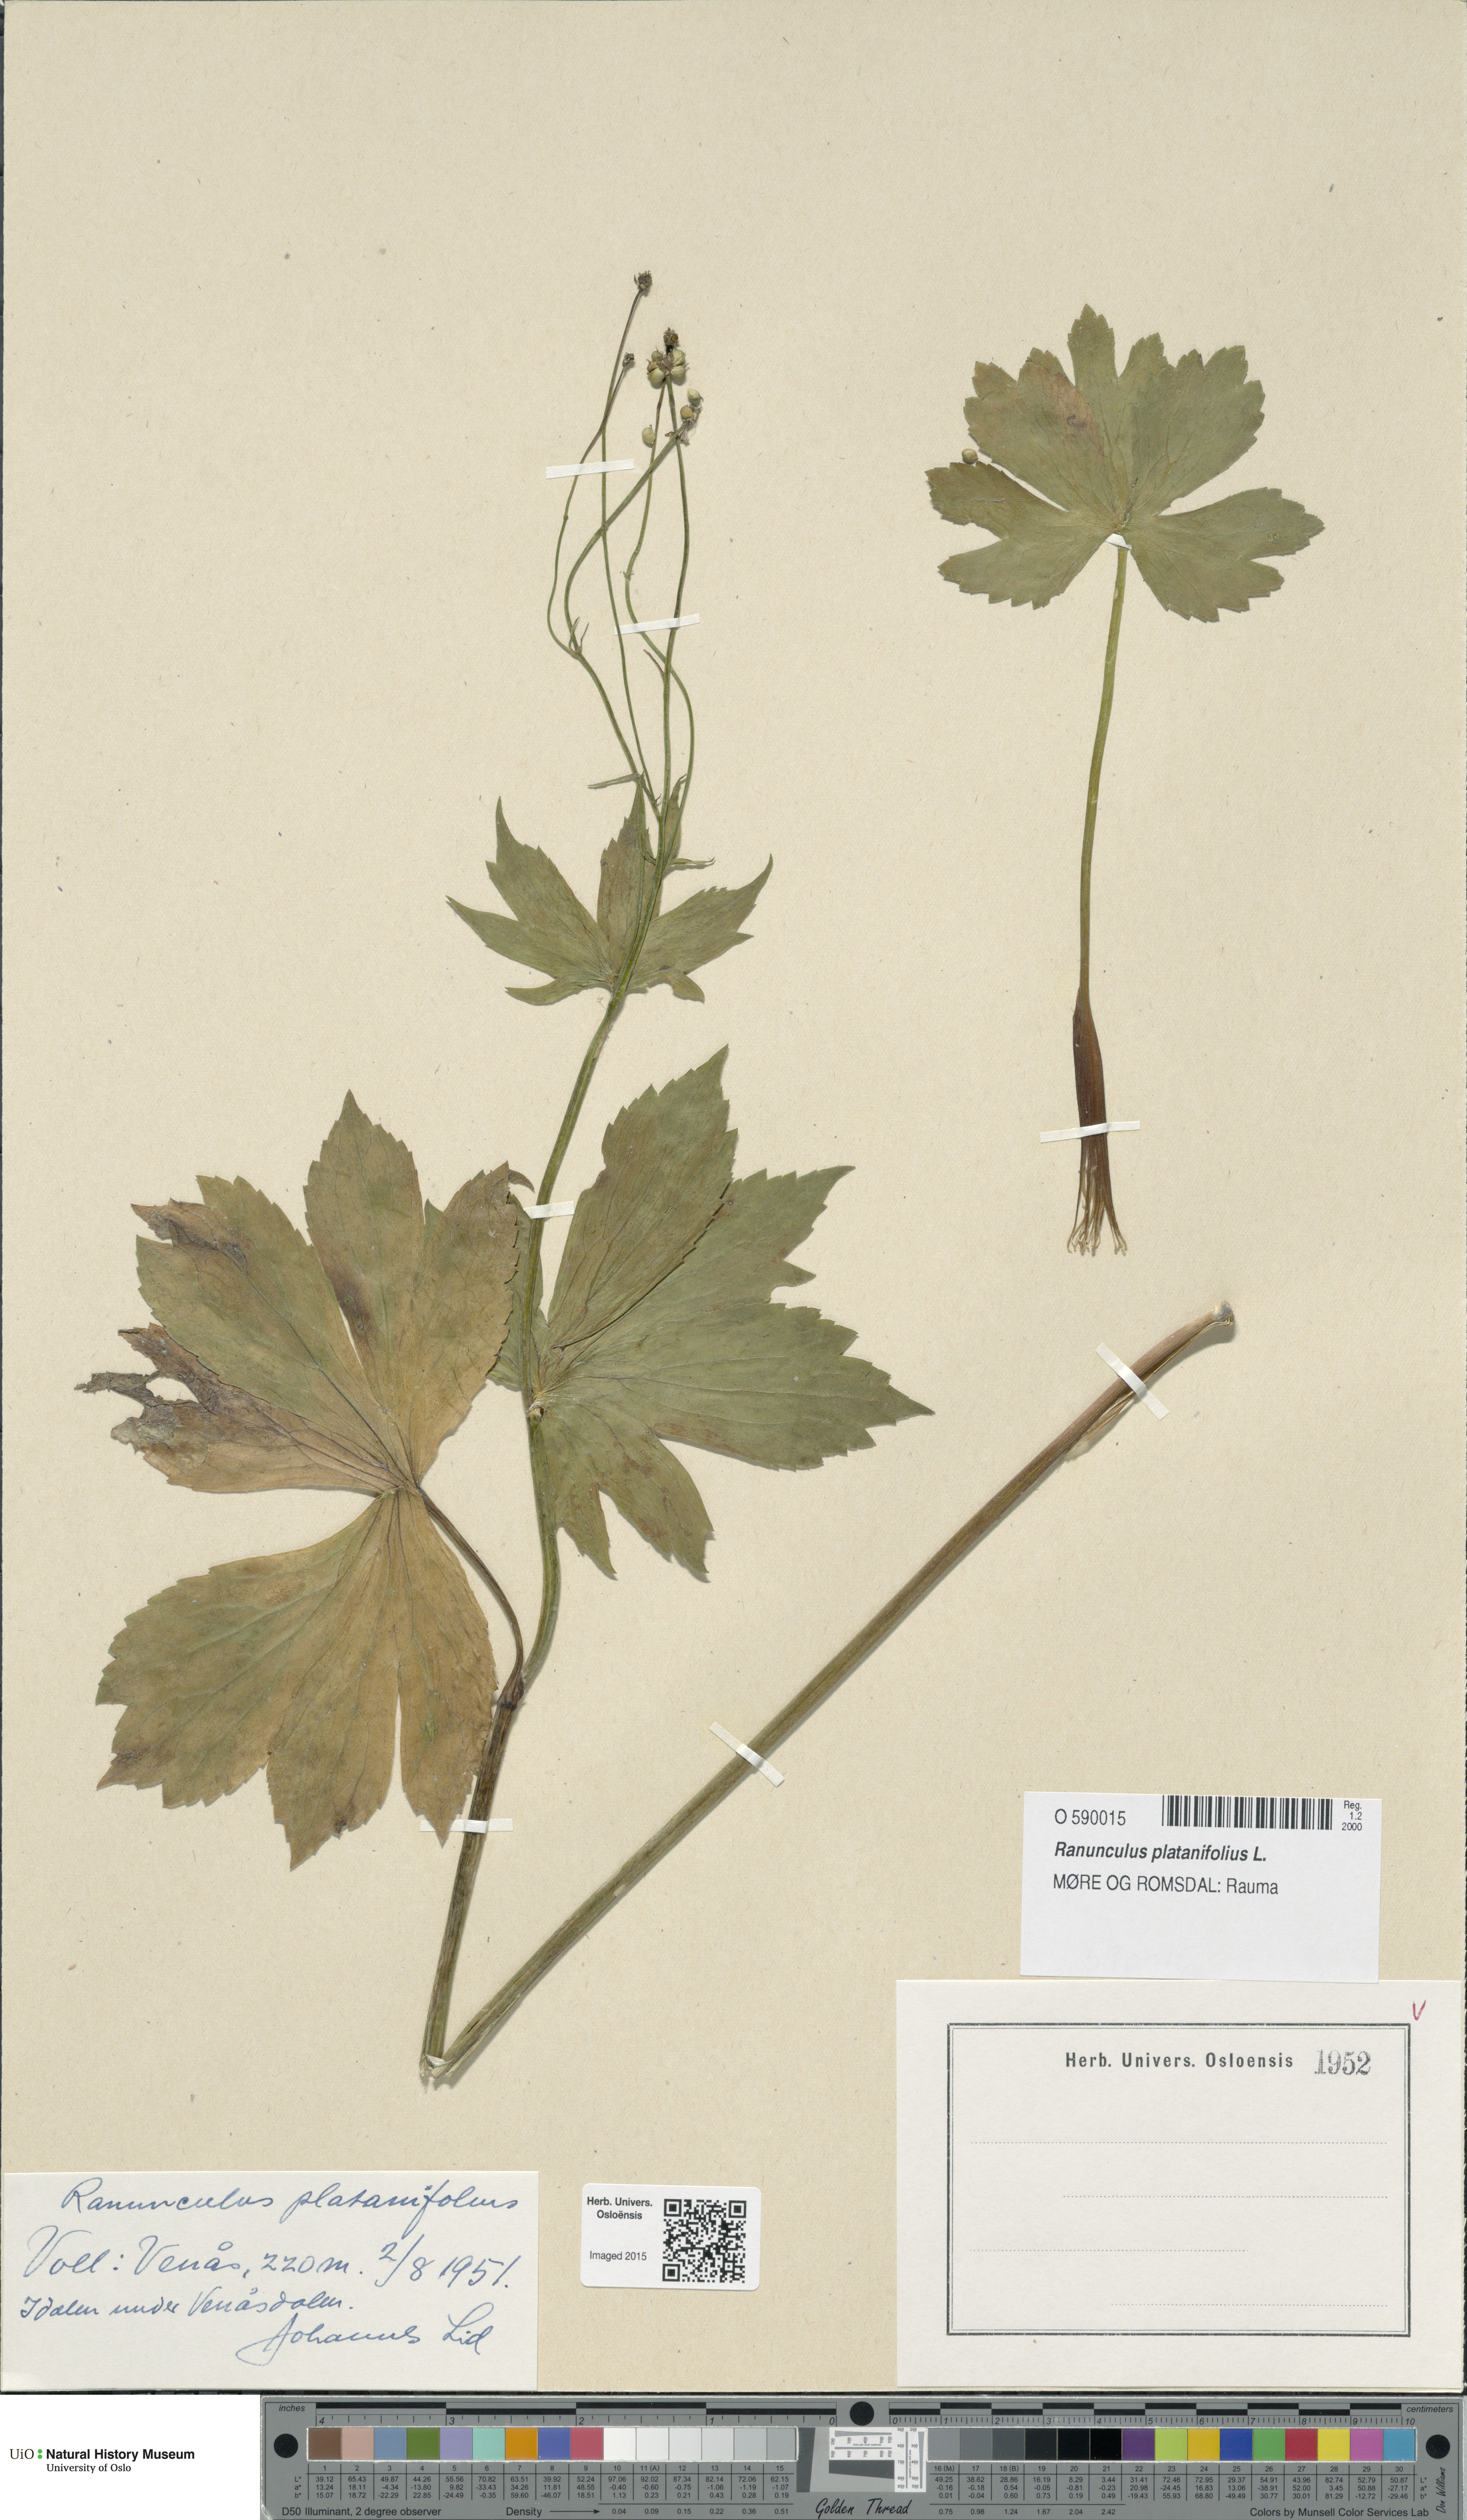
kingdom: Plantae
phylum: Tracheophyta
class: Magnoliopsida
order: Ranunculales
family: Ranunculaceae
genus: Ranunculus
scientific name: Ranunculus platanifolius
